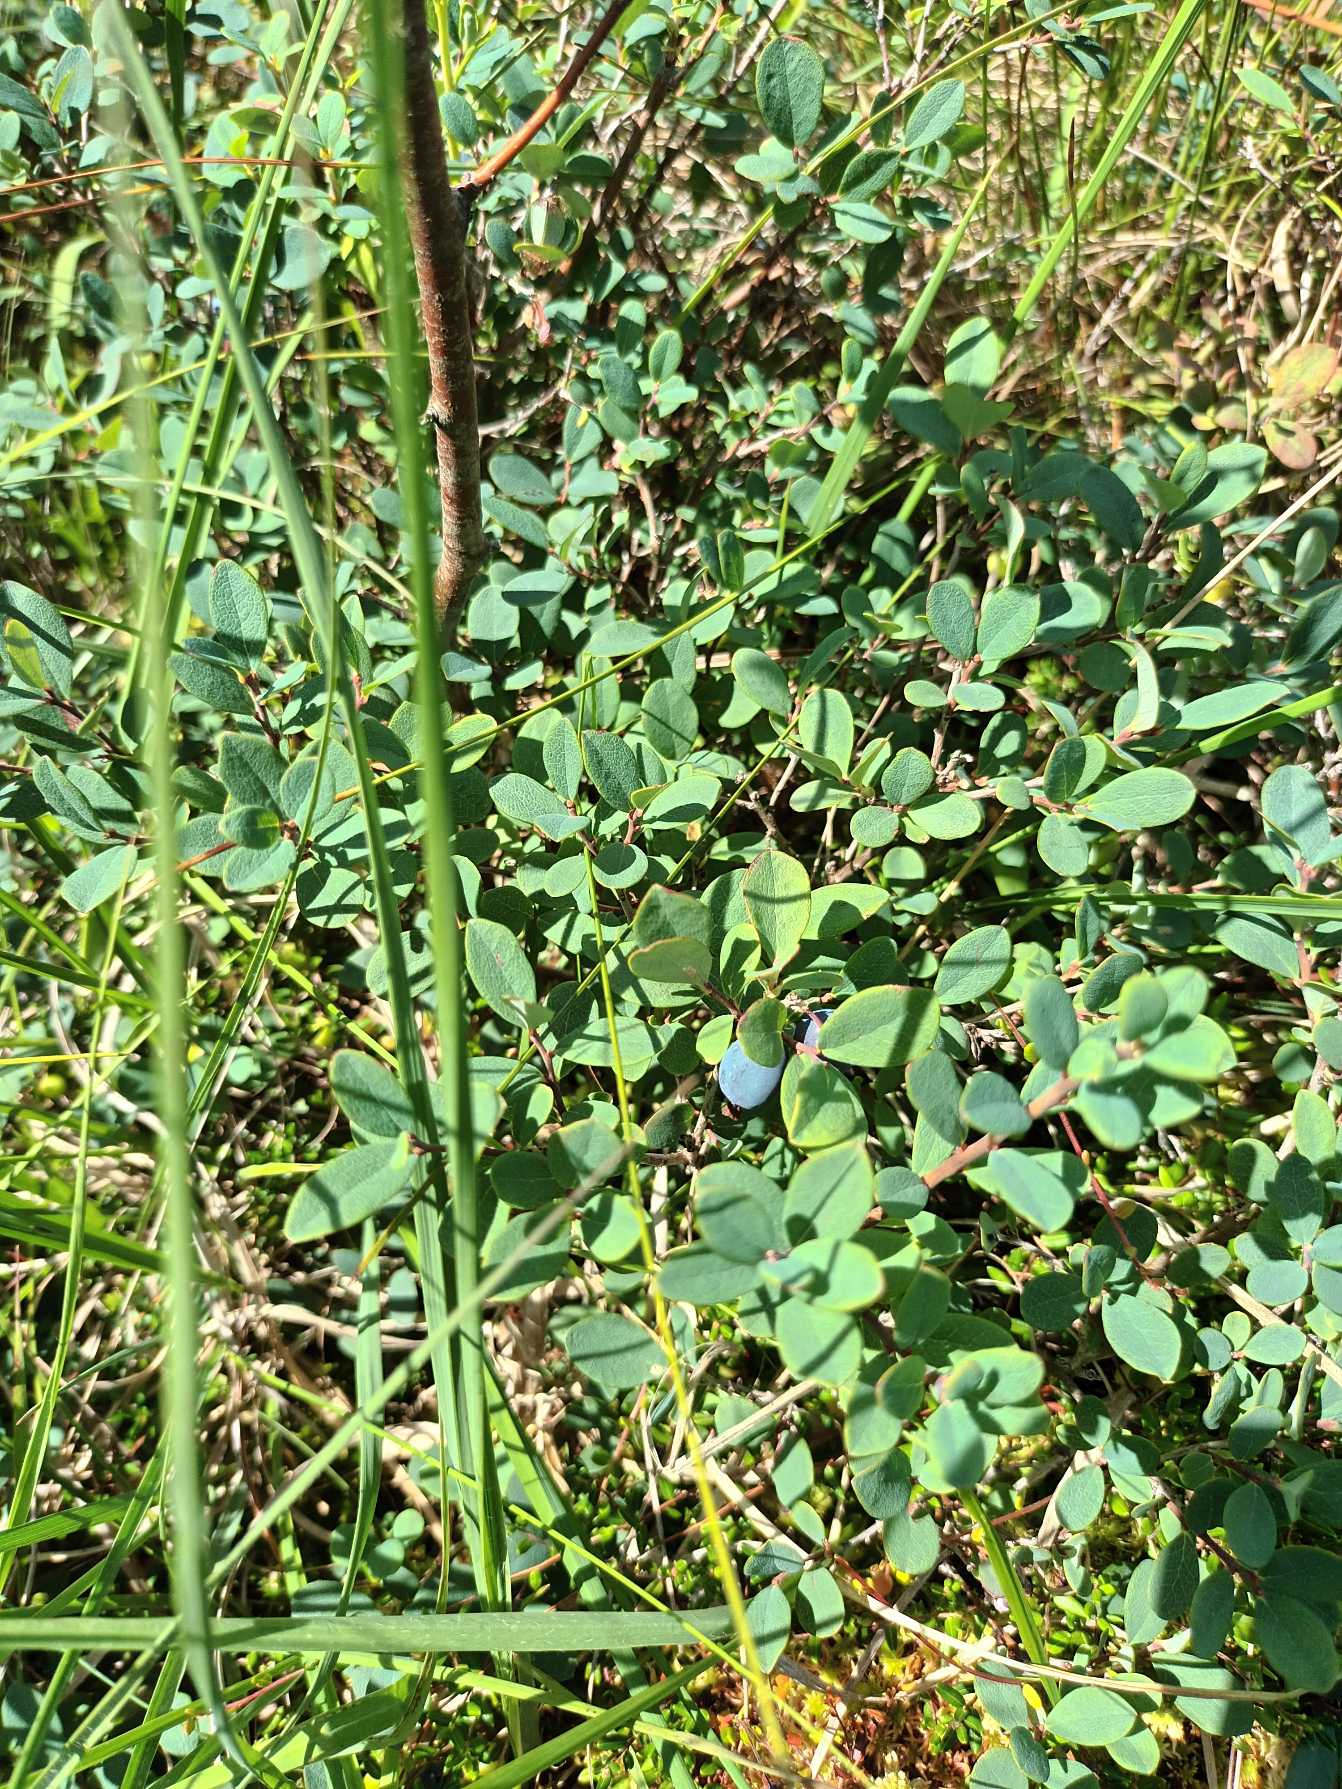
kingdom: Plantae
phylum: Tracheophyta
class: Magnoliopsida
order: Ericales
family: Ericaceae
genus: Vaccinium
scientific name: Vaccinium uliginosum
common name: Mose-bølle
